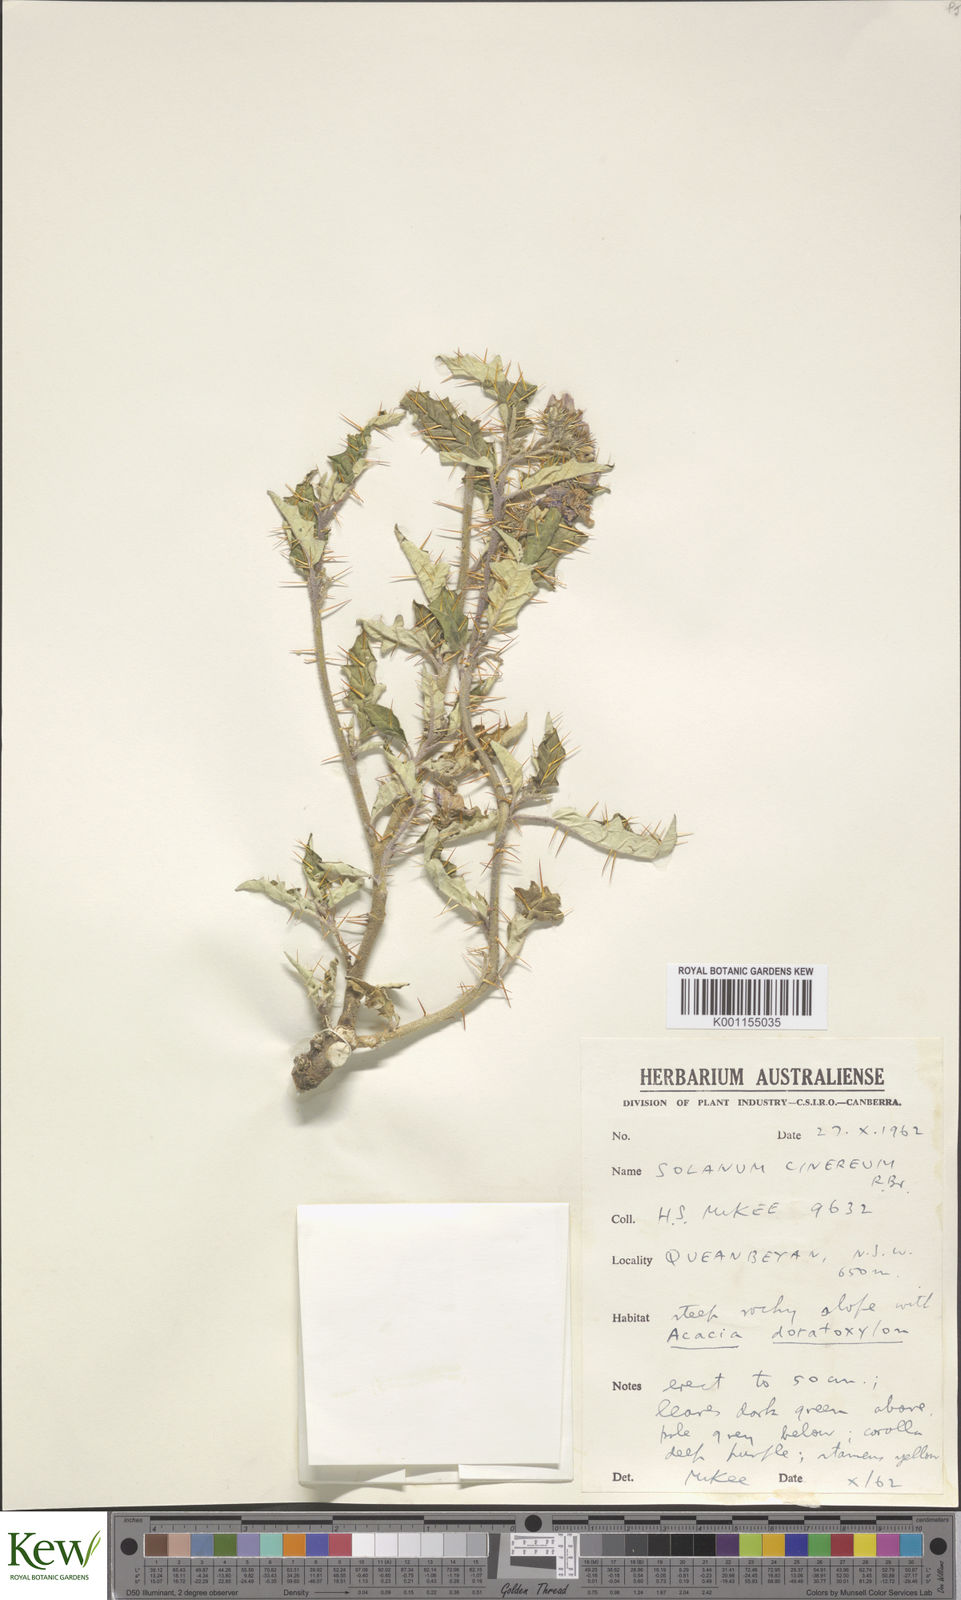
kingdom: Plantae
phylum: Tracheophyta
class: Magnoliopsida
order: Solanales
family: Solanaceae
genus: Solanum
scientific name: Solanum cinereum
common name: Narrawa-bur
